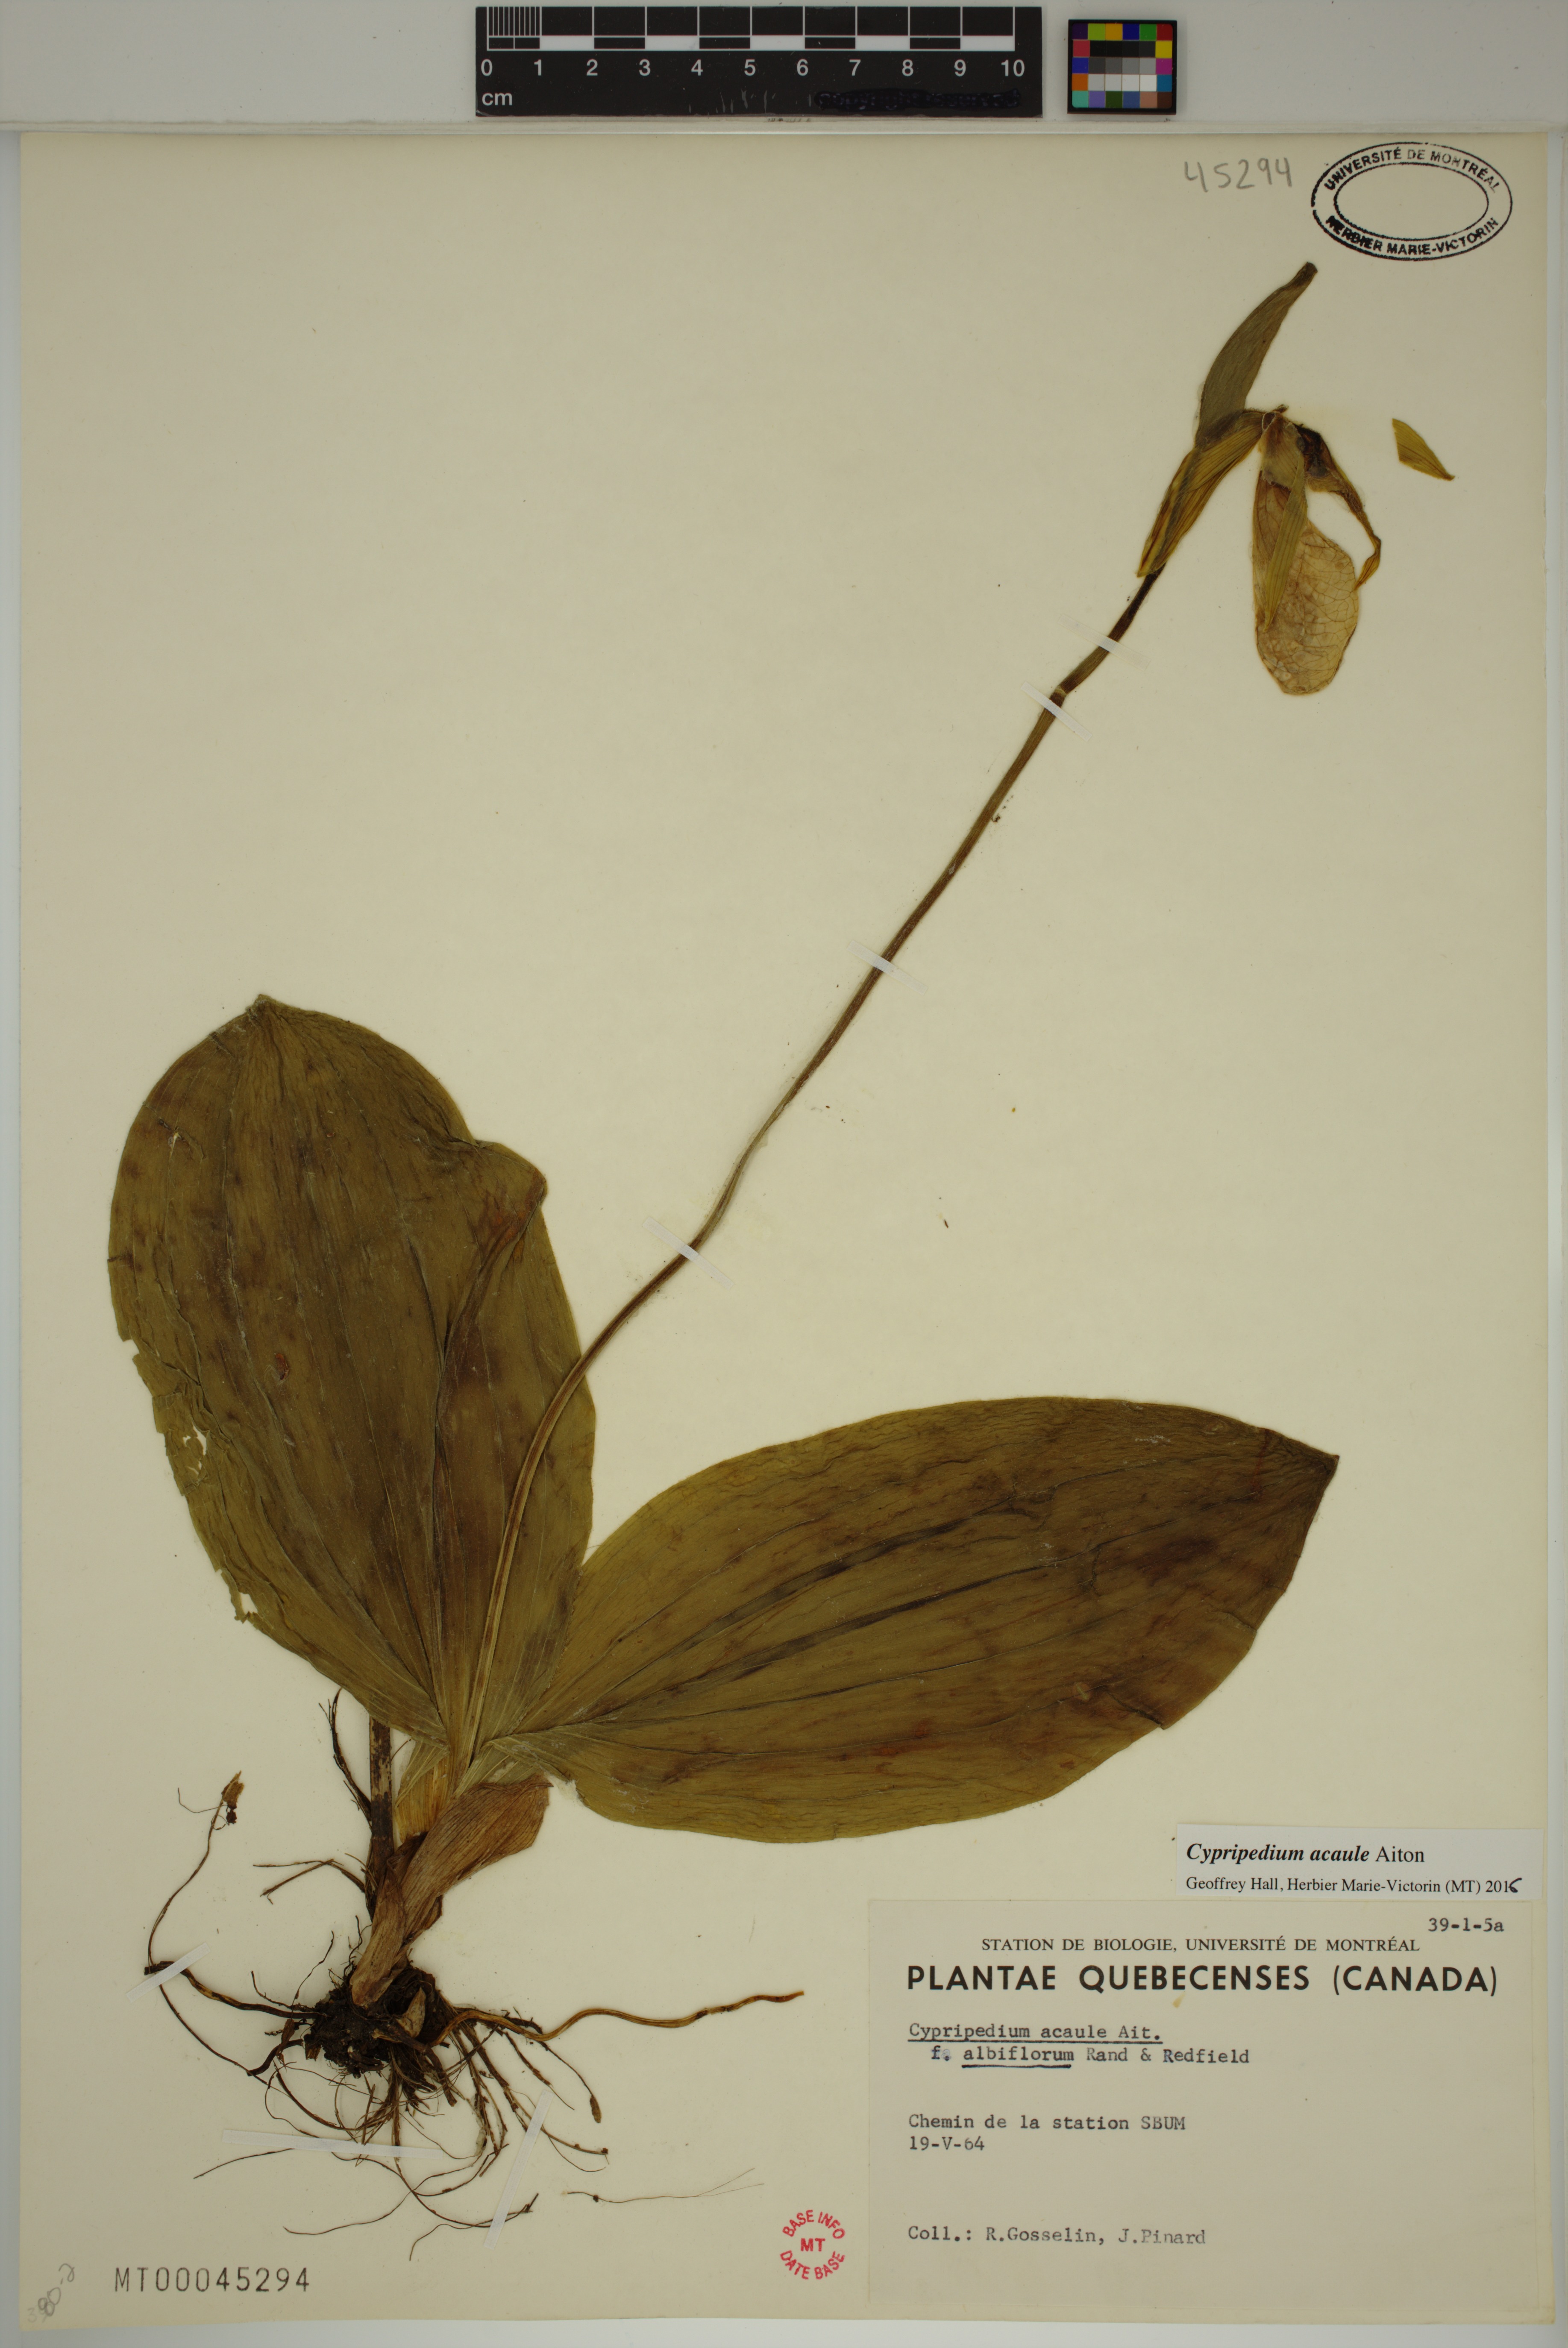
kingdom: Plantae
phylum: Tracheophyta
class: Liliopsida
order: Asparagales
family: Orchidaceae
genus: Cypripedium
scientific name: Cypripedium acaule
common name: Pink lady's-slipper
